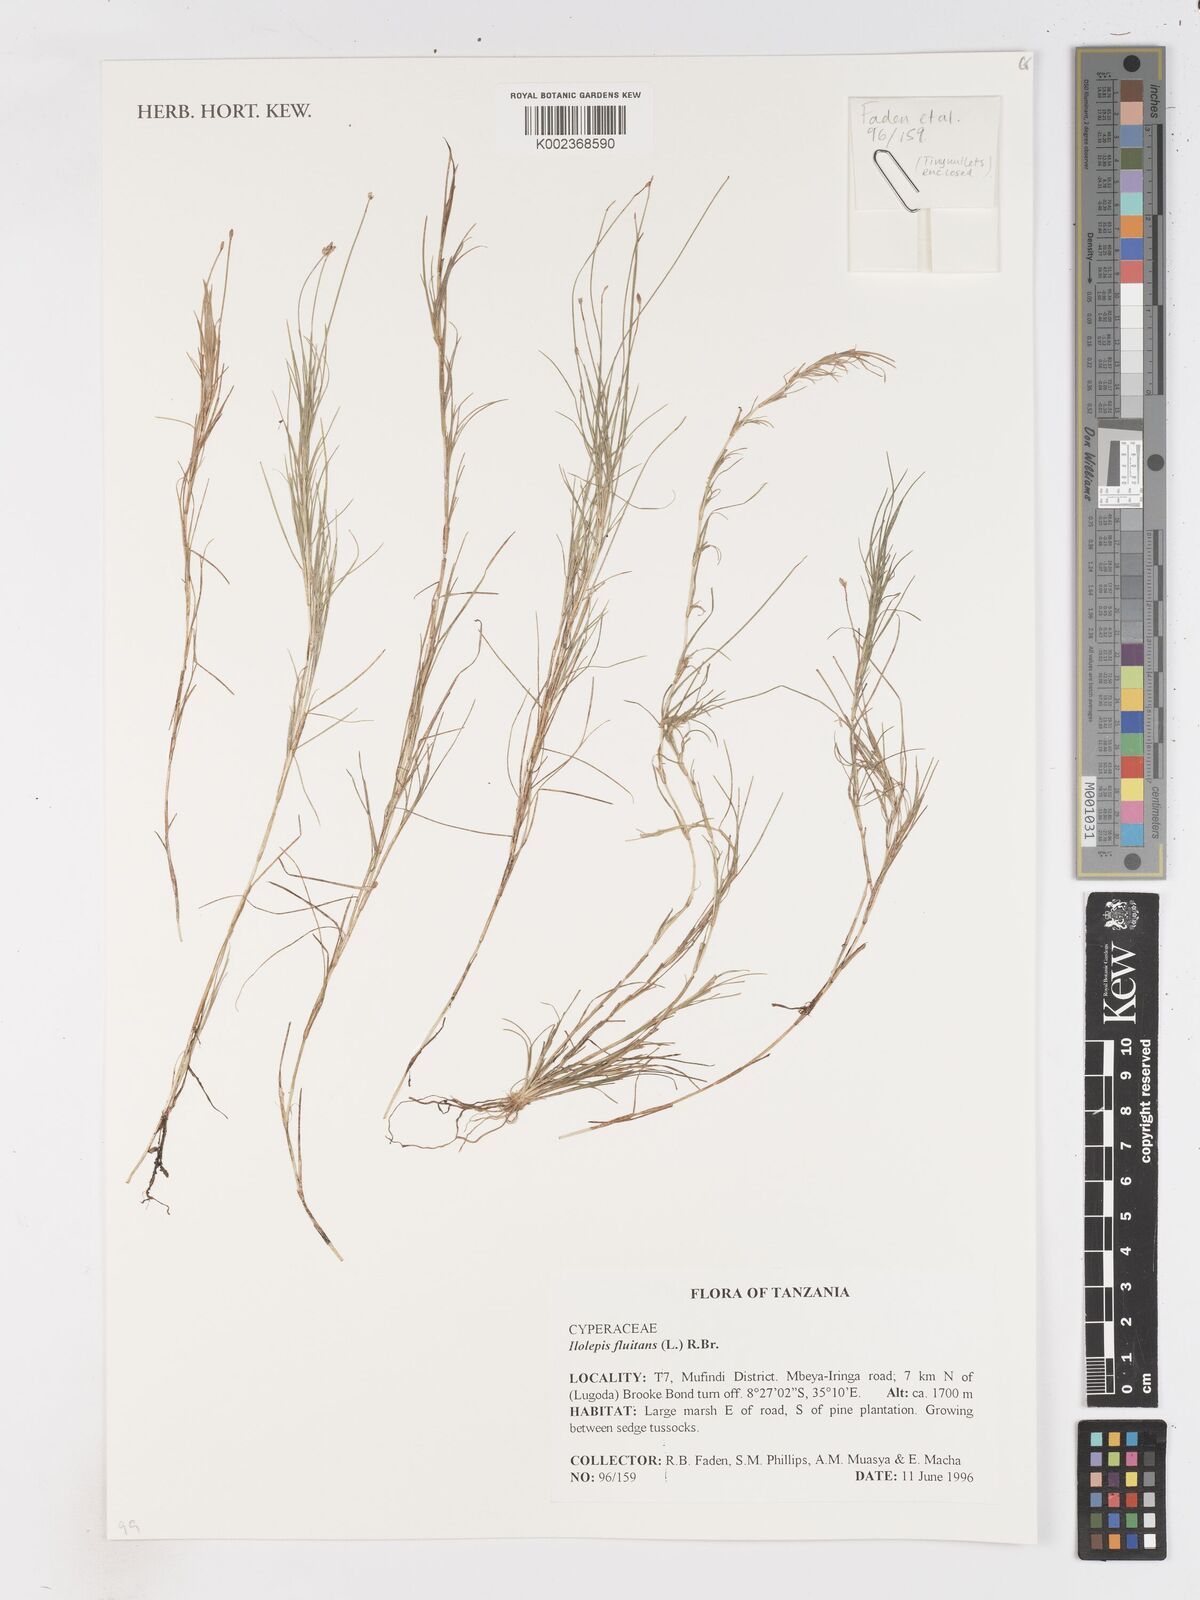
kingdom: Plantae
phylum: Tracheophyta
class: Liliopsida
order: Poales
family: Cyperaceae
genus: Isolepis
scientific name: Isolepis fluitans
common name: Floating club-rush
